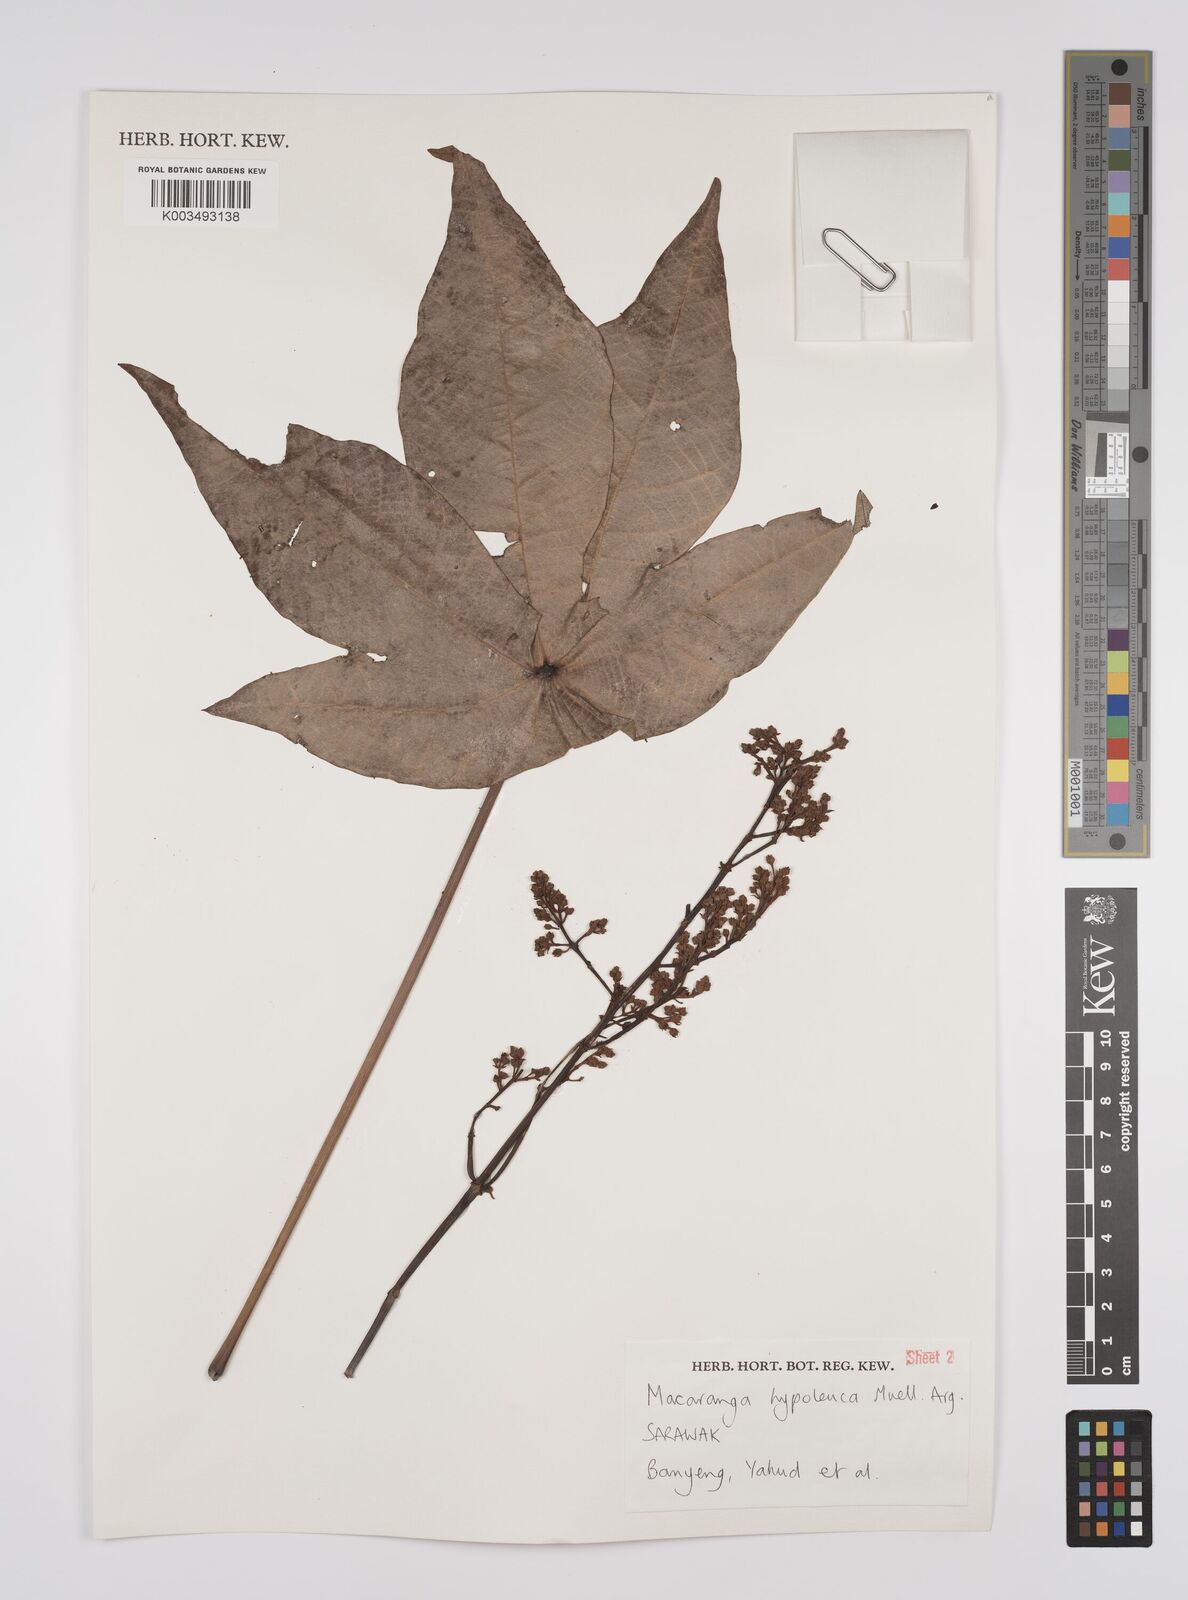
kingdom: Plantae
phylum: Tracheophyta
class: Magnoliopsida
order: Malpighiales
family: Euphorbiaceae
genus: Macaranga
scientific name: Macaranga hypoleuca
